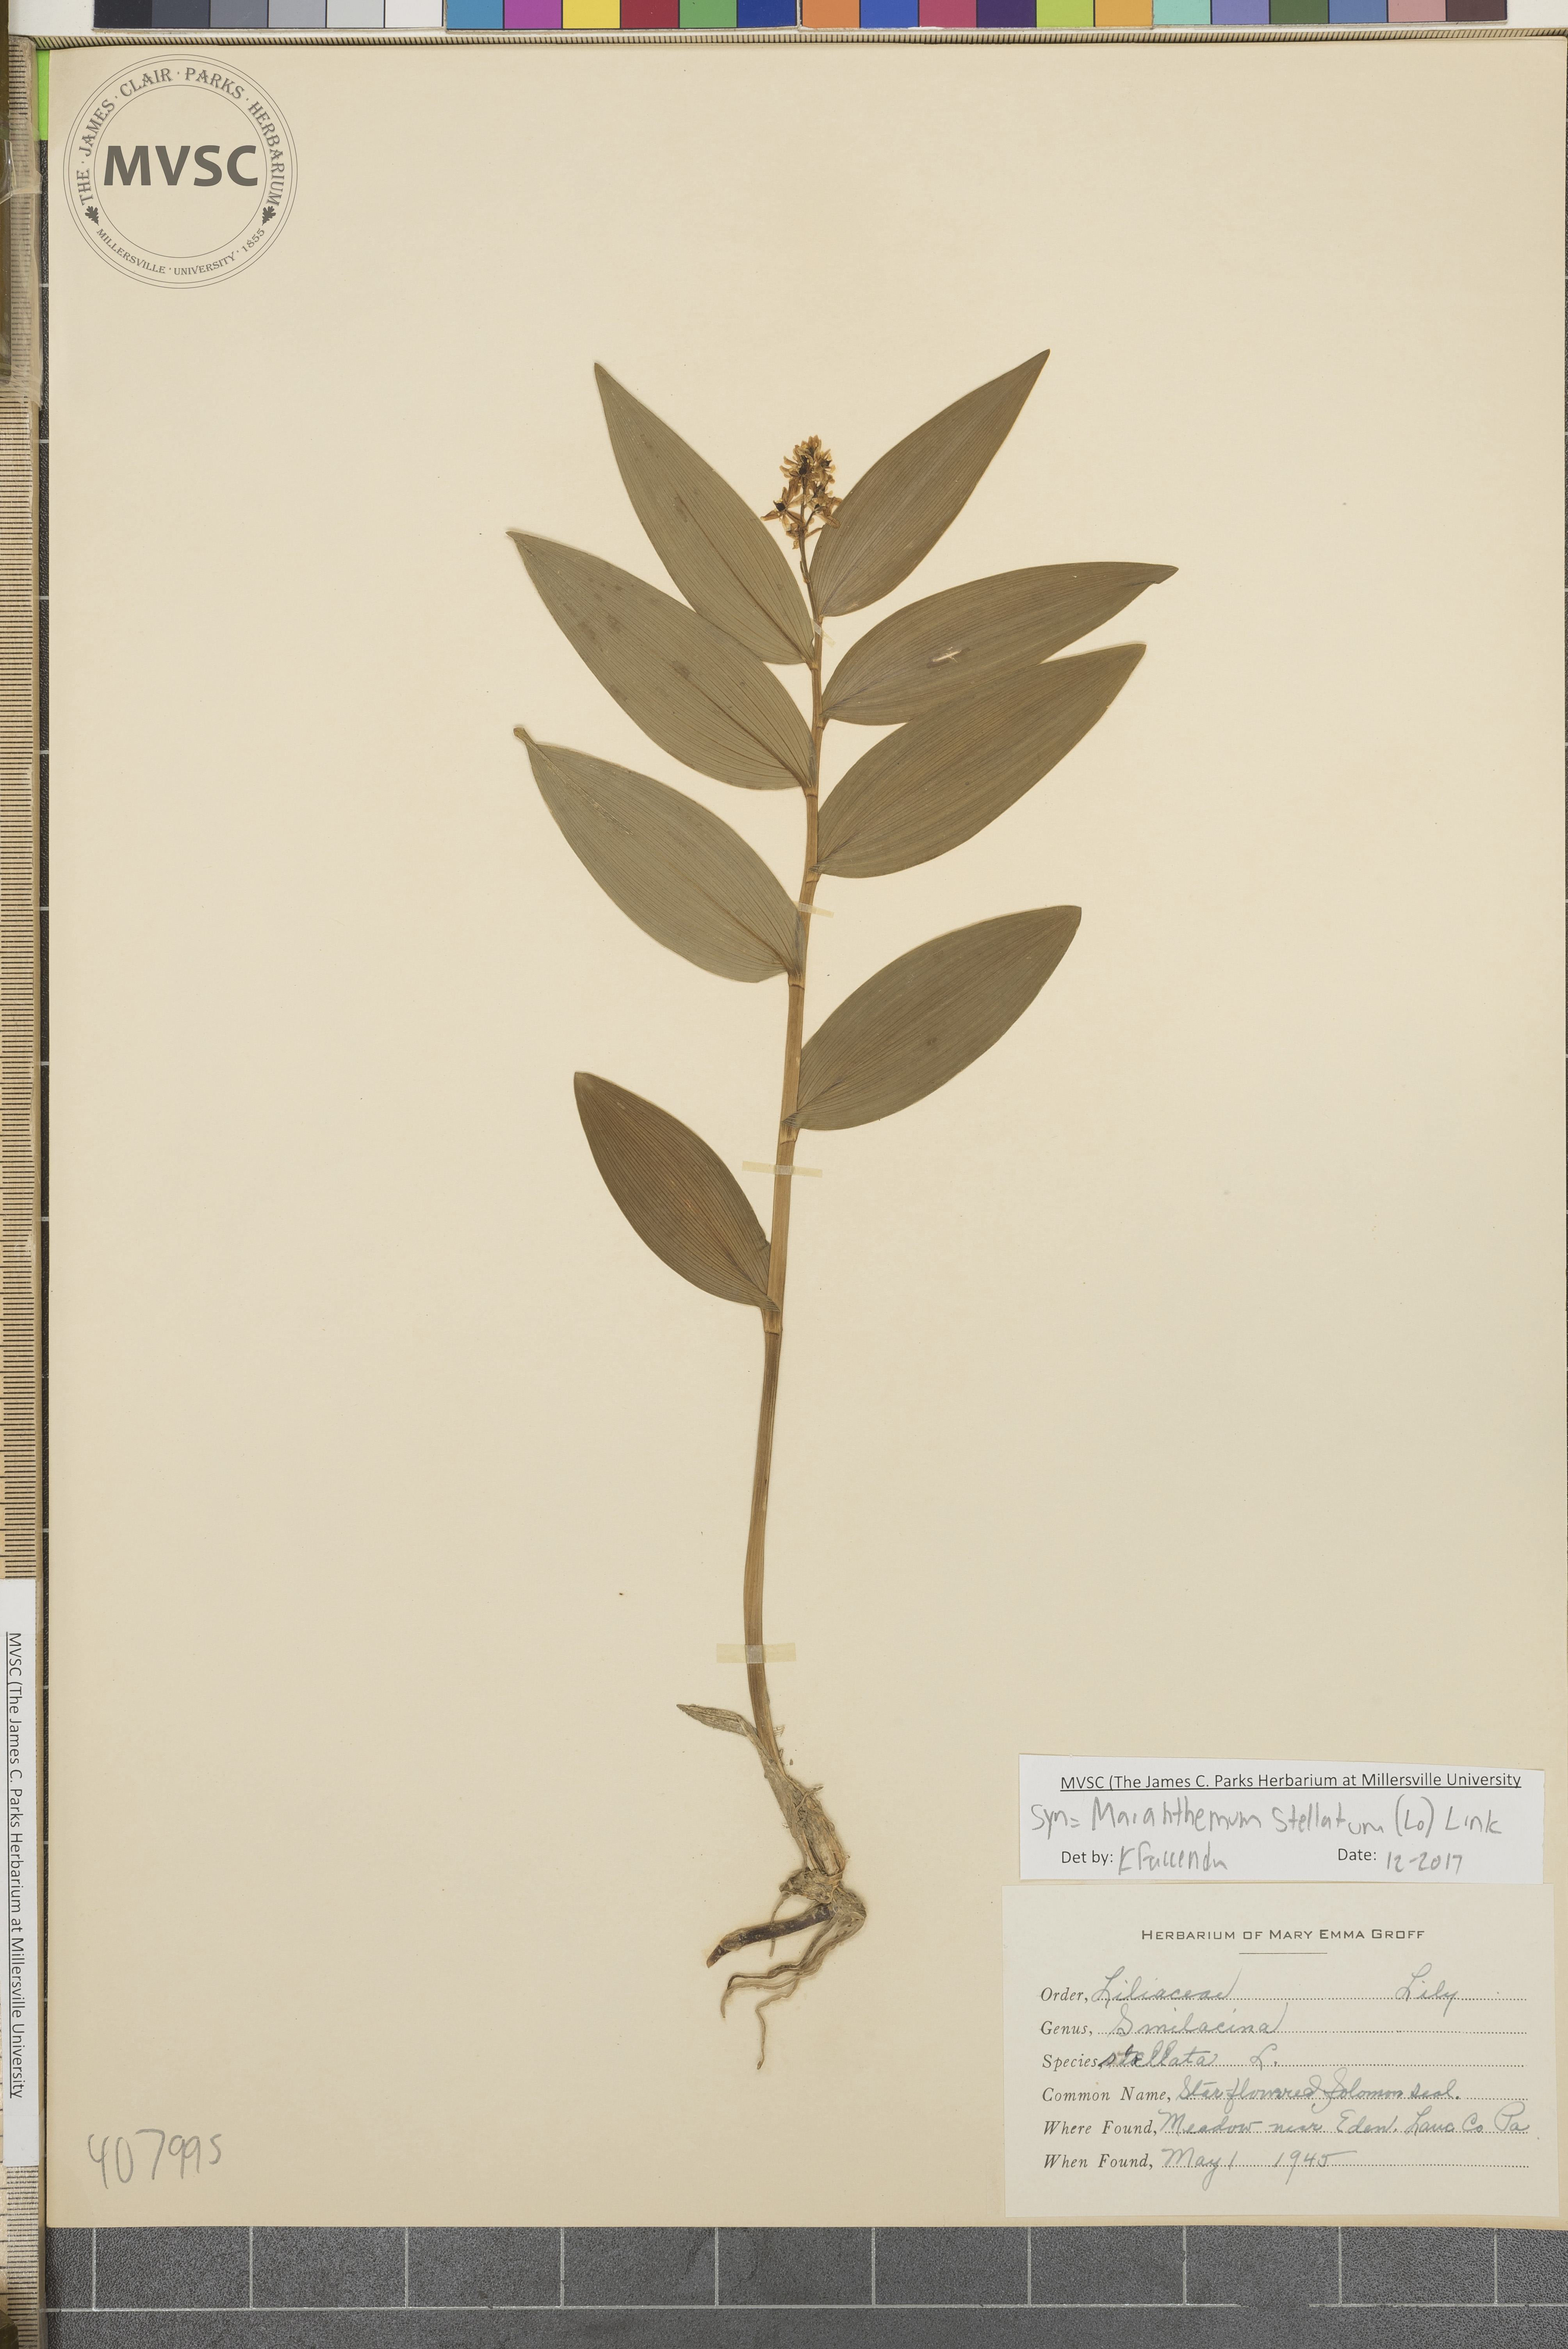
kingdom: Plantae
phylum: Tracheophyta
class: Liliopsida
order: Asparagales
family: Asparagaceae
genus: Maianthemum
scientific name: Maianthemum stellatum
